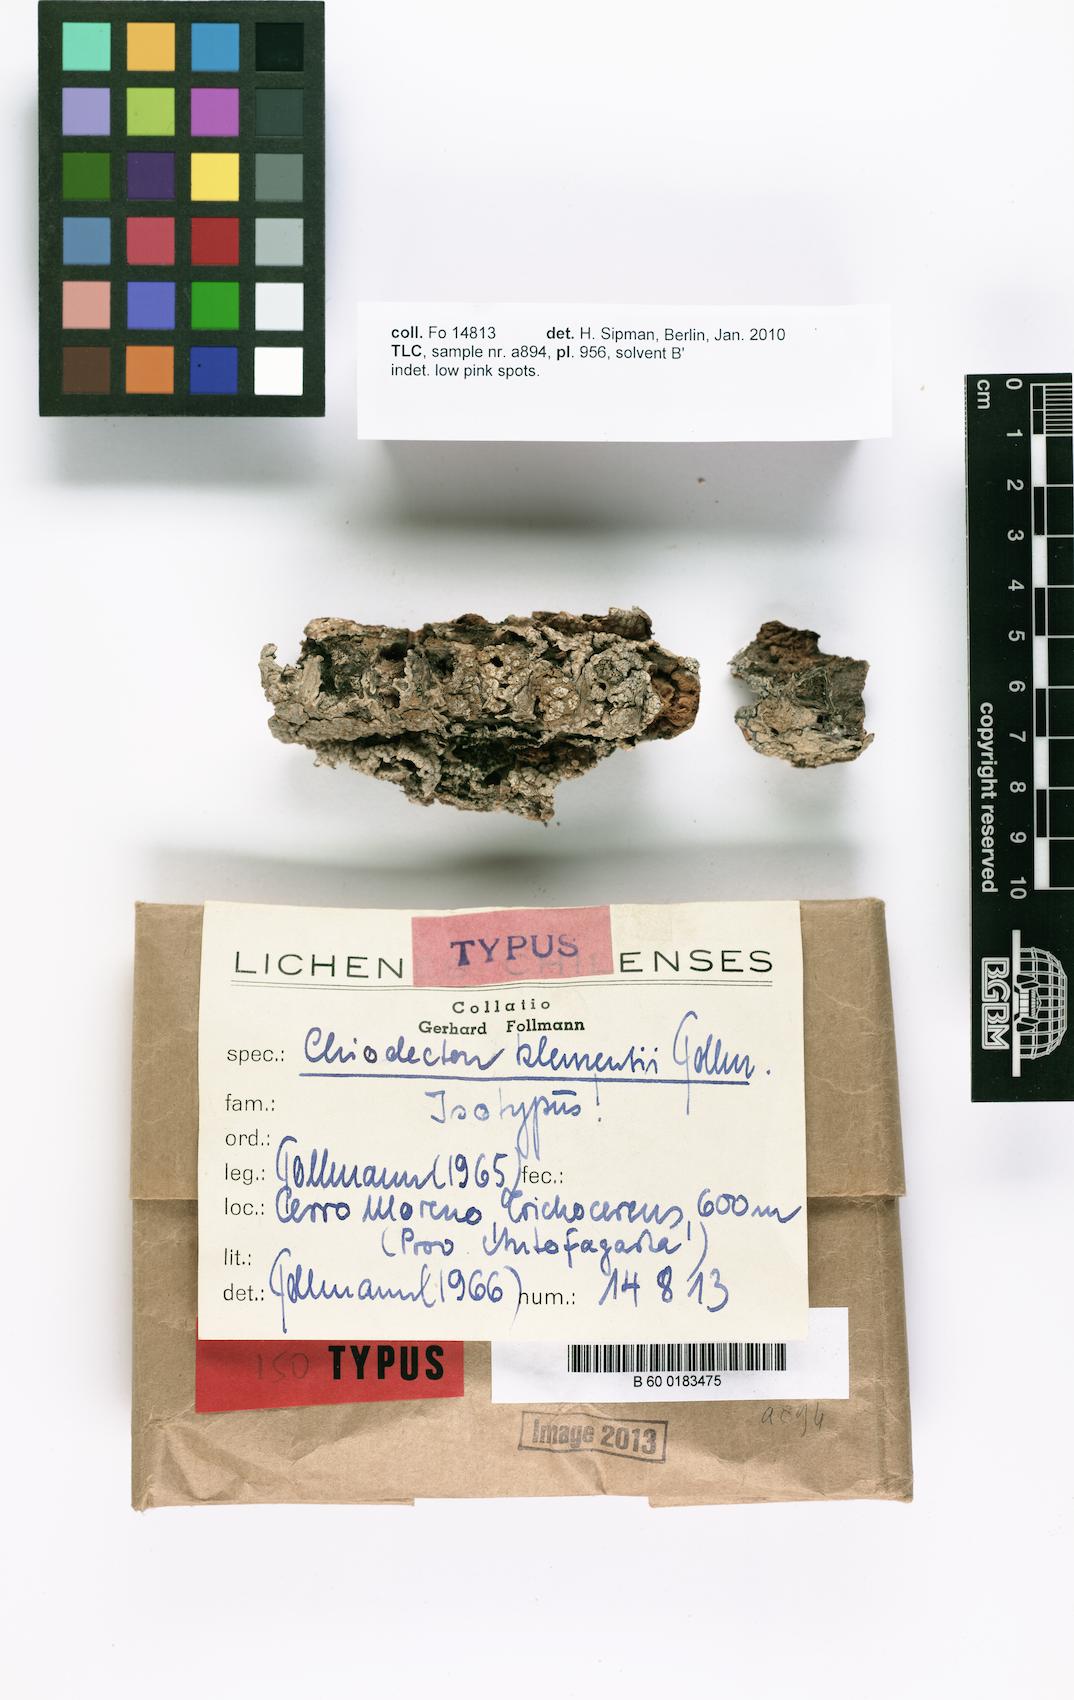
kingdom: Fungi
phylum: Ascomycota
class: Arthoniomycetes
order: Arthoniales
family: Roccellographaceae
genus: Fulvophyton
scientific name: Fulvophyton klementii
